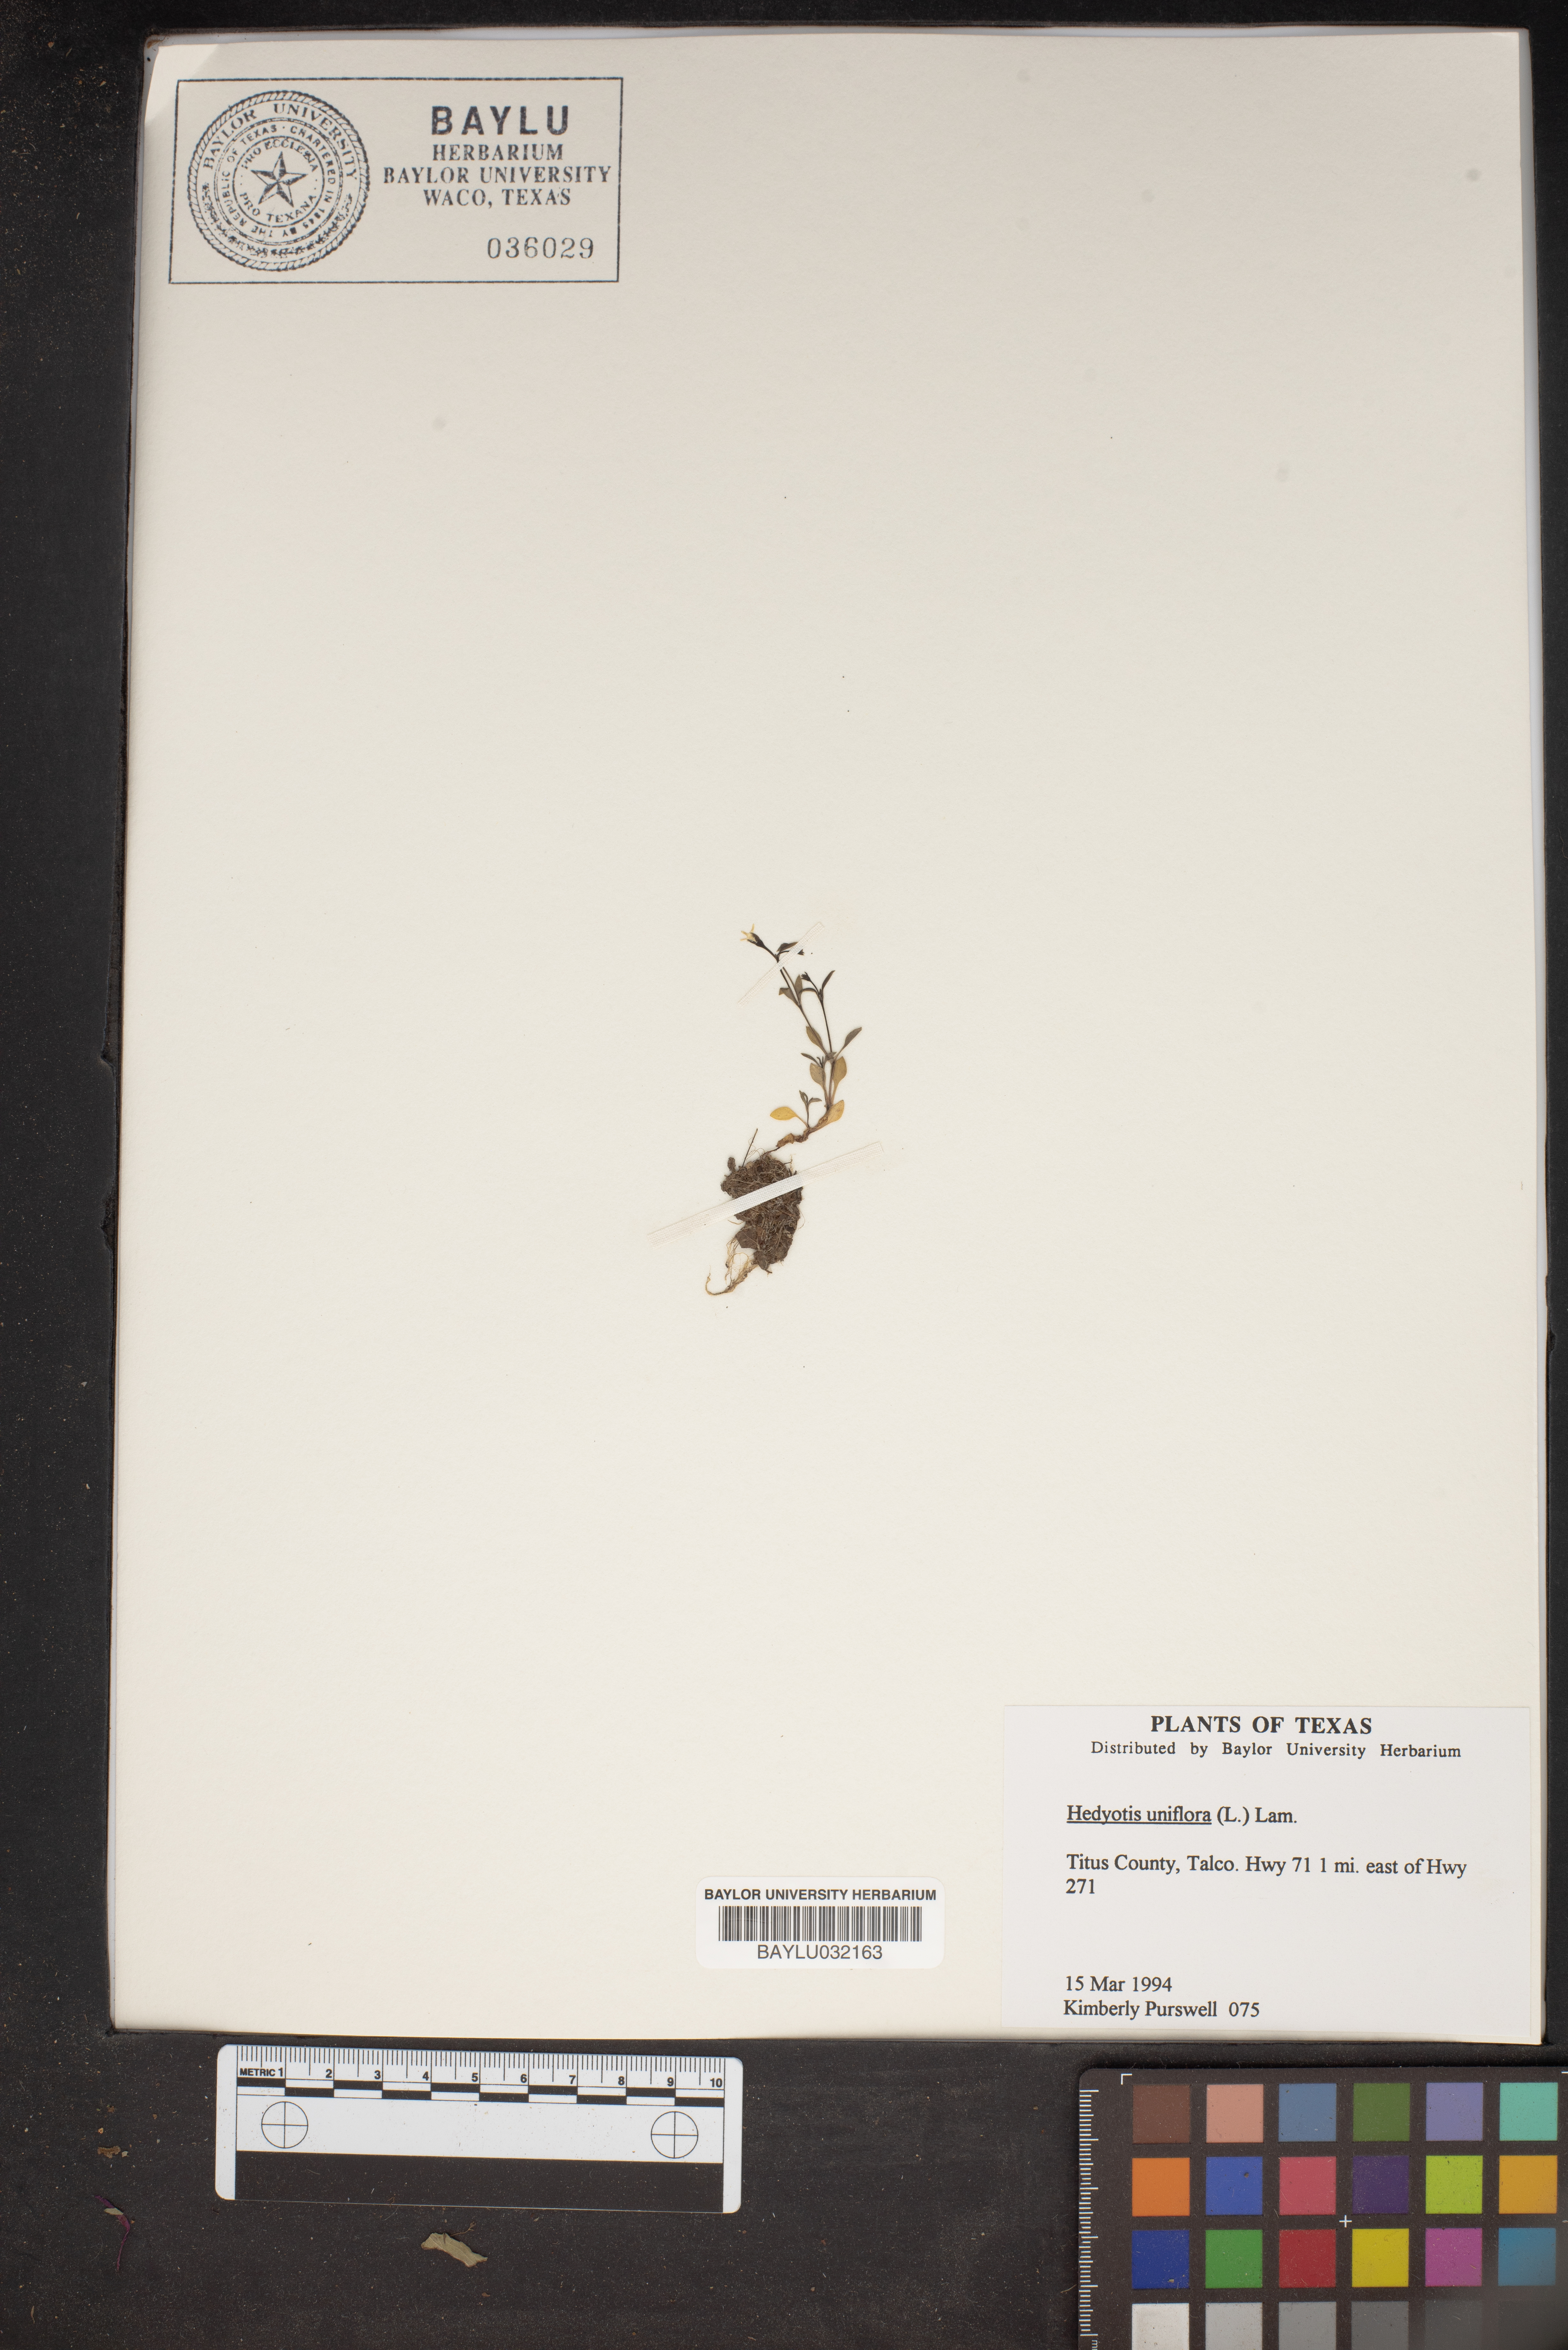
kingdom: Plantae
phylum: Tracheophyta
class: Magnoliopsida
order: Gentianales
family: Rubiaceae
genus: Edrastima
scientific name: Edrastima uniflora
